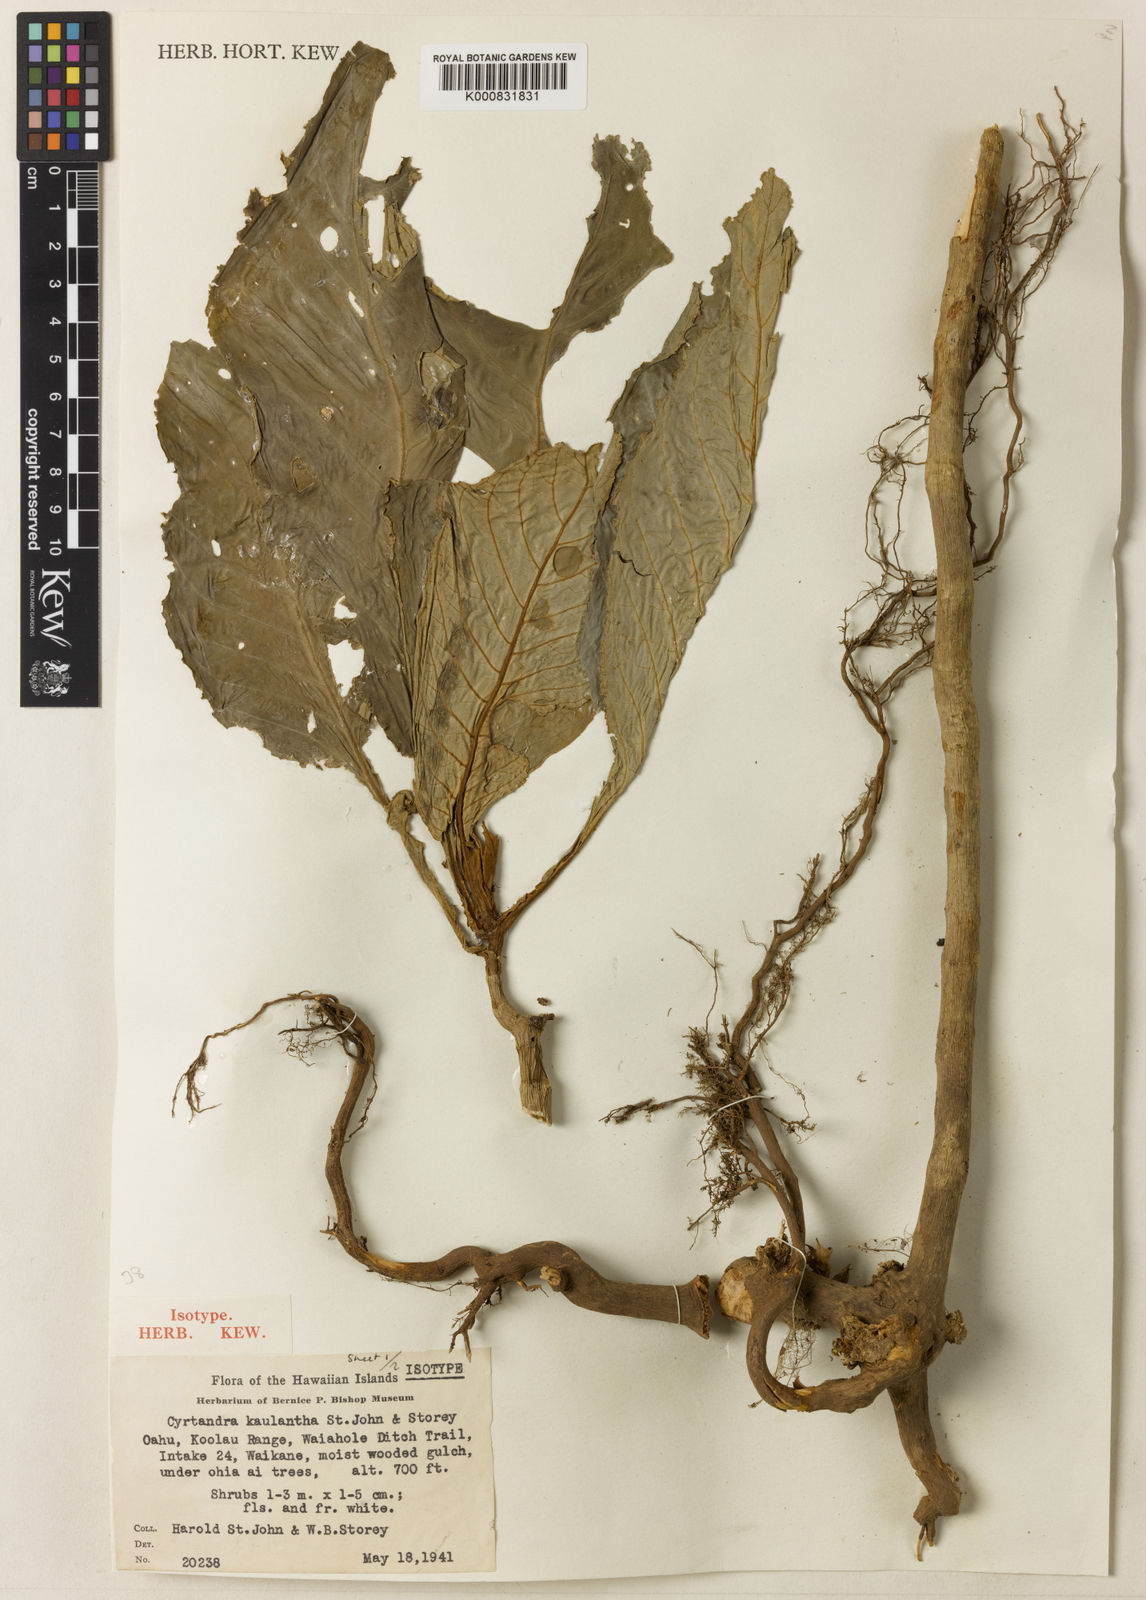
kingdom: Plantae
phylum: Tracheophyta
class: Magnoliopsida
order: Lamiales
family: Gesneriaceae
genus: Cyrtandra
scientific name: Cyrtandra kaulantha
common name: Waikane valley cyrtandra
